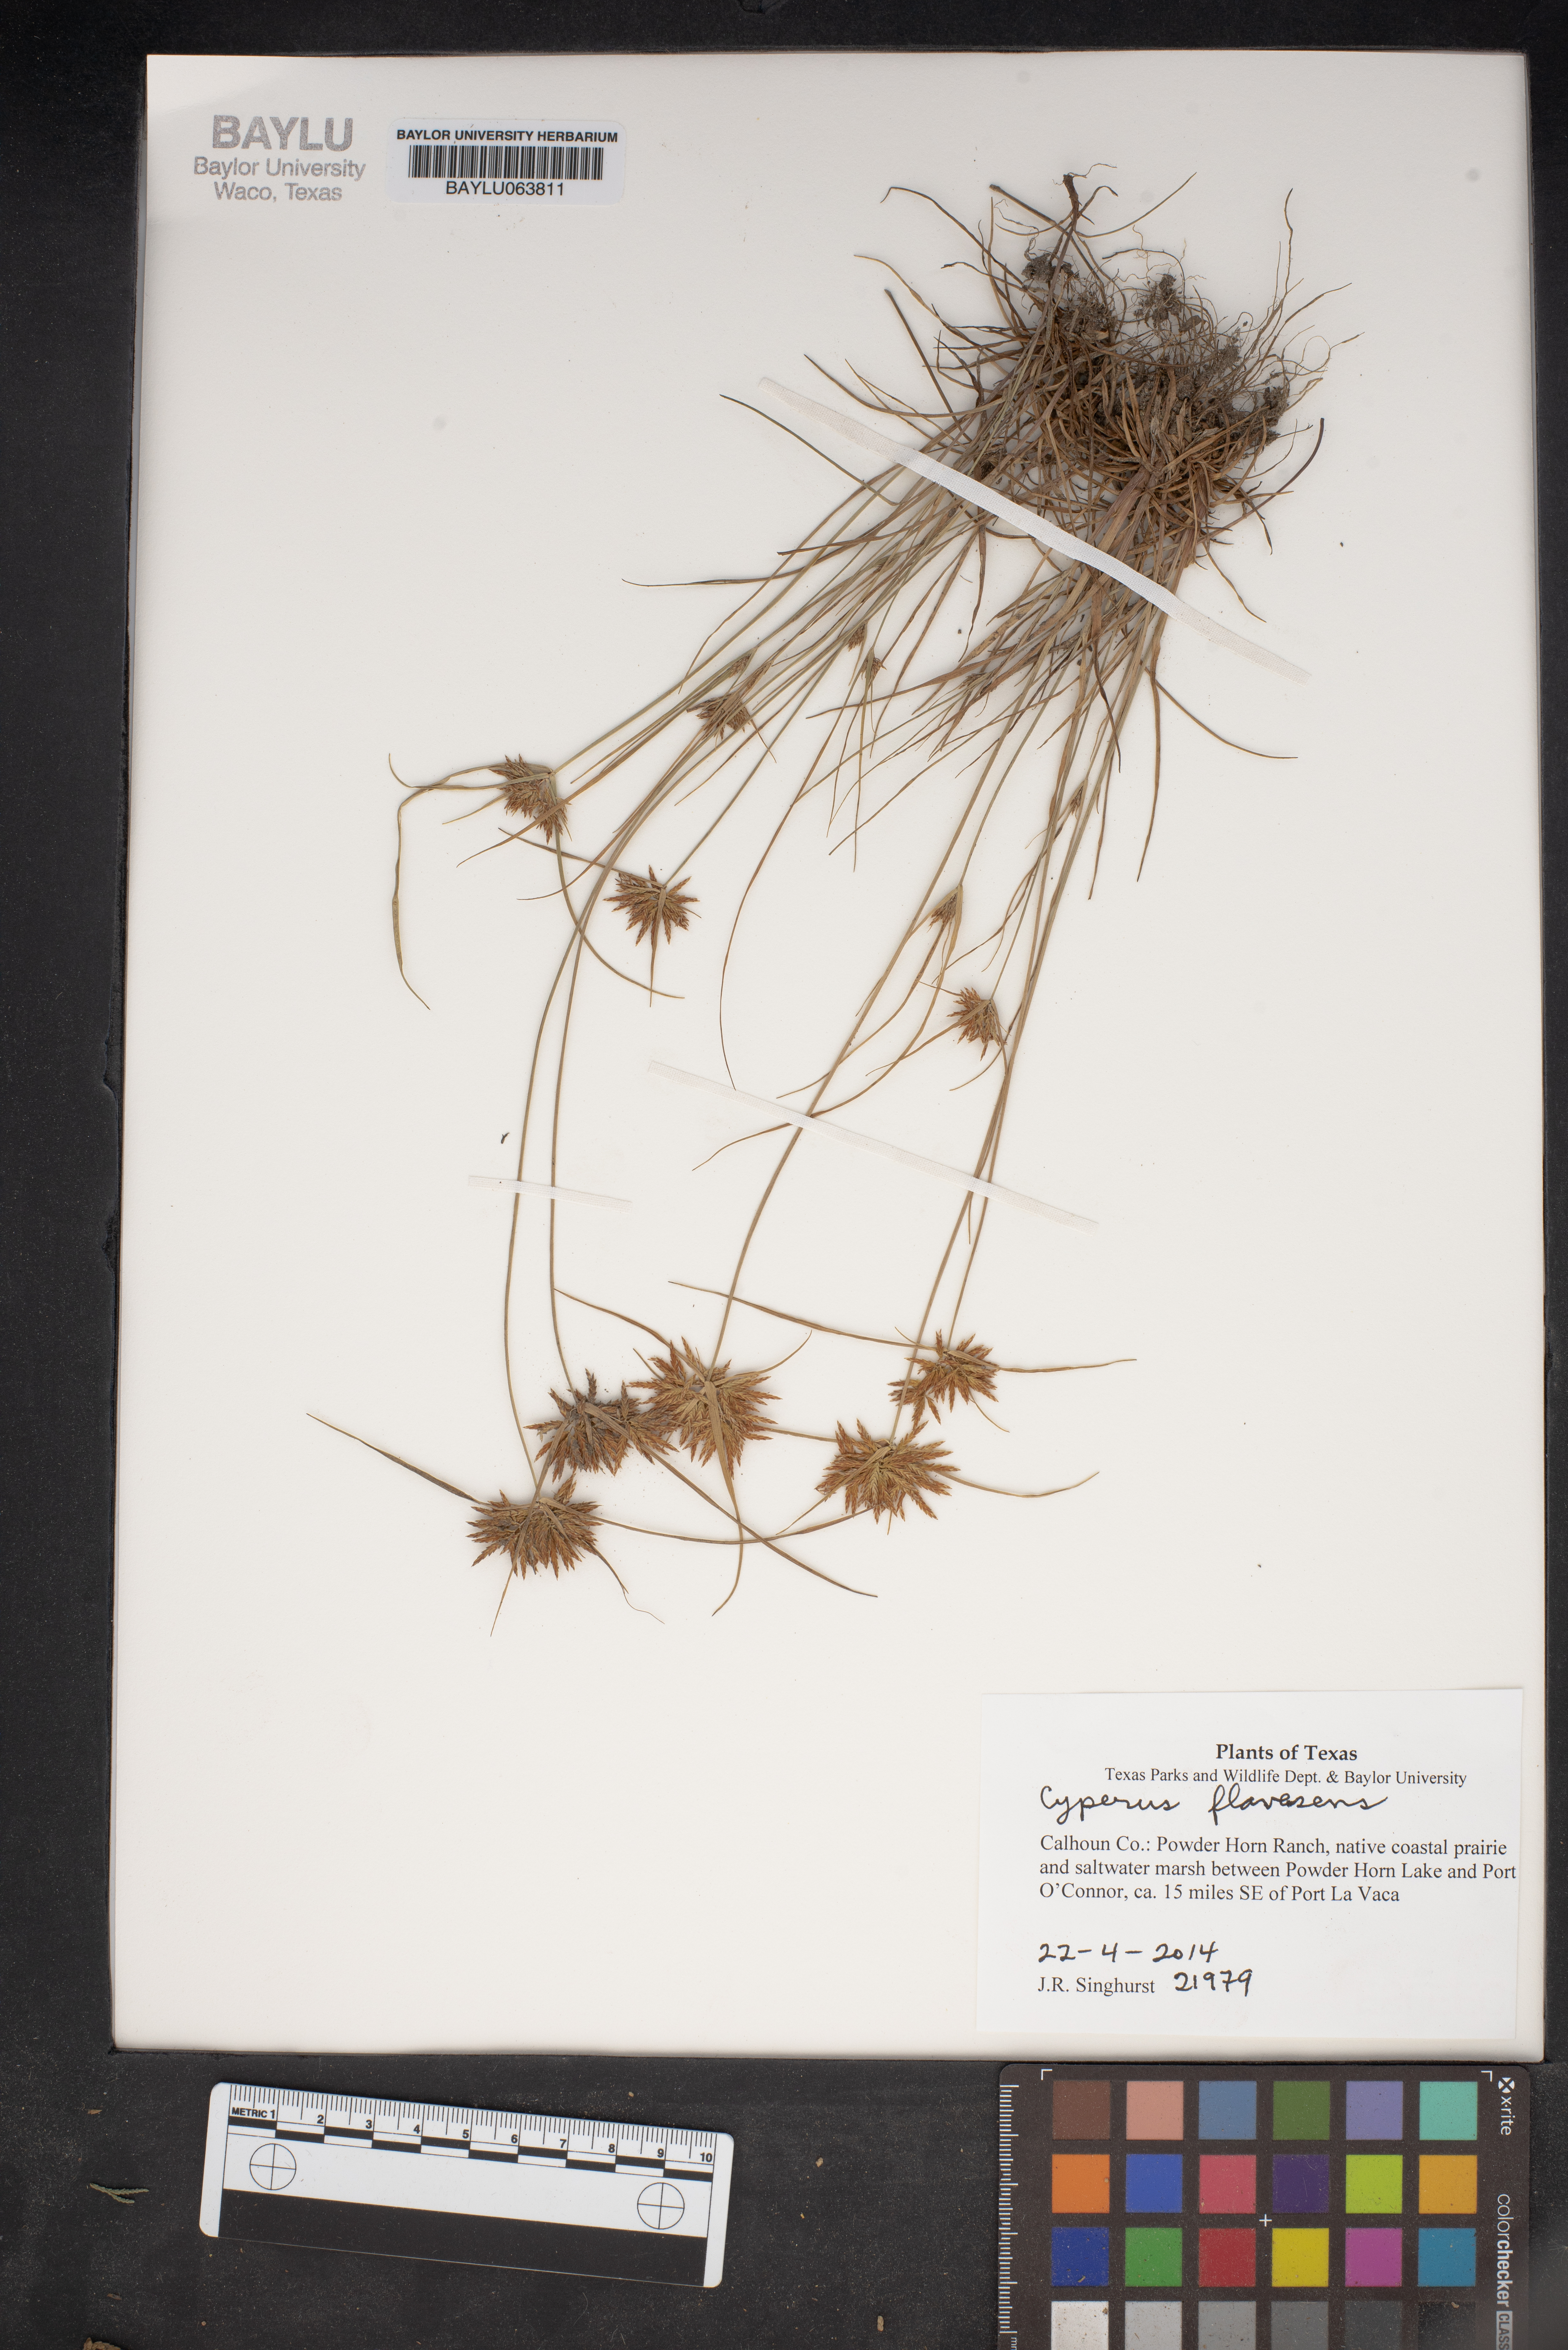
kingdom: Plantae
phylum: Tracheophyta
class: Liliopsida
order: Poales
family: Cyperaceae
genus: Cyperus
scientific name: Cyperus flavescens
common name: Yellow galingale
